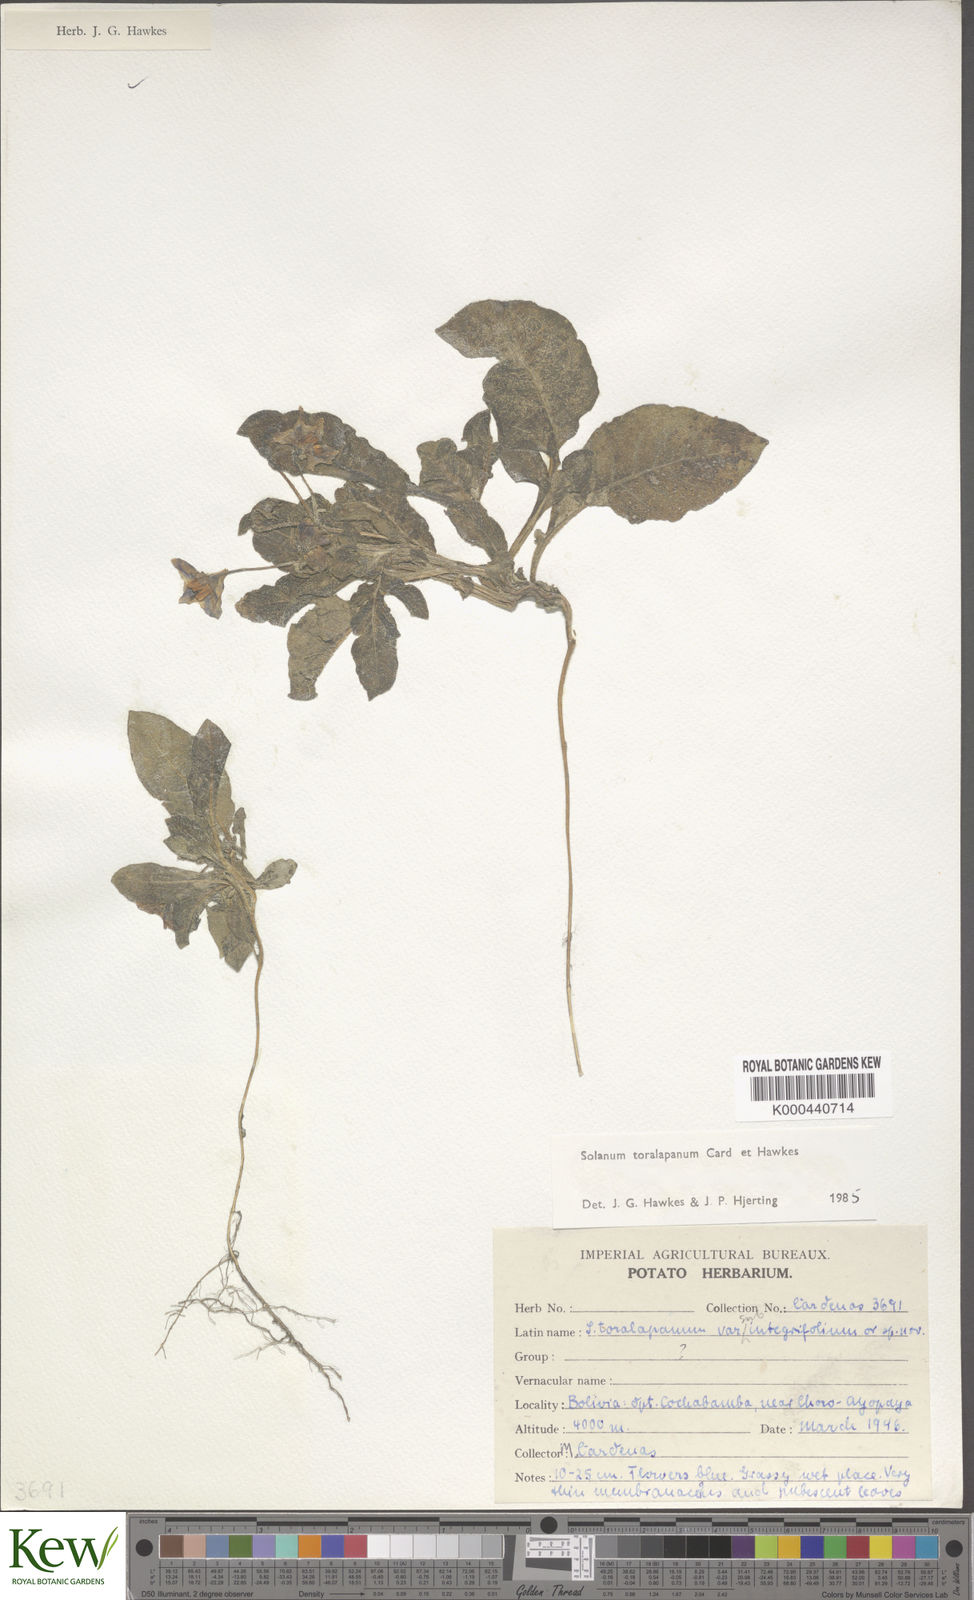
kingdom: Plantae
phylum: Tracheophyta
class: Magnoliopsida
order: Solanales
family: Solanaceae
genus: Solanum
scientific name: Solanum boliviense
